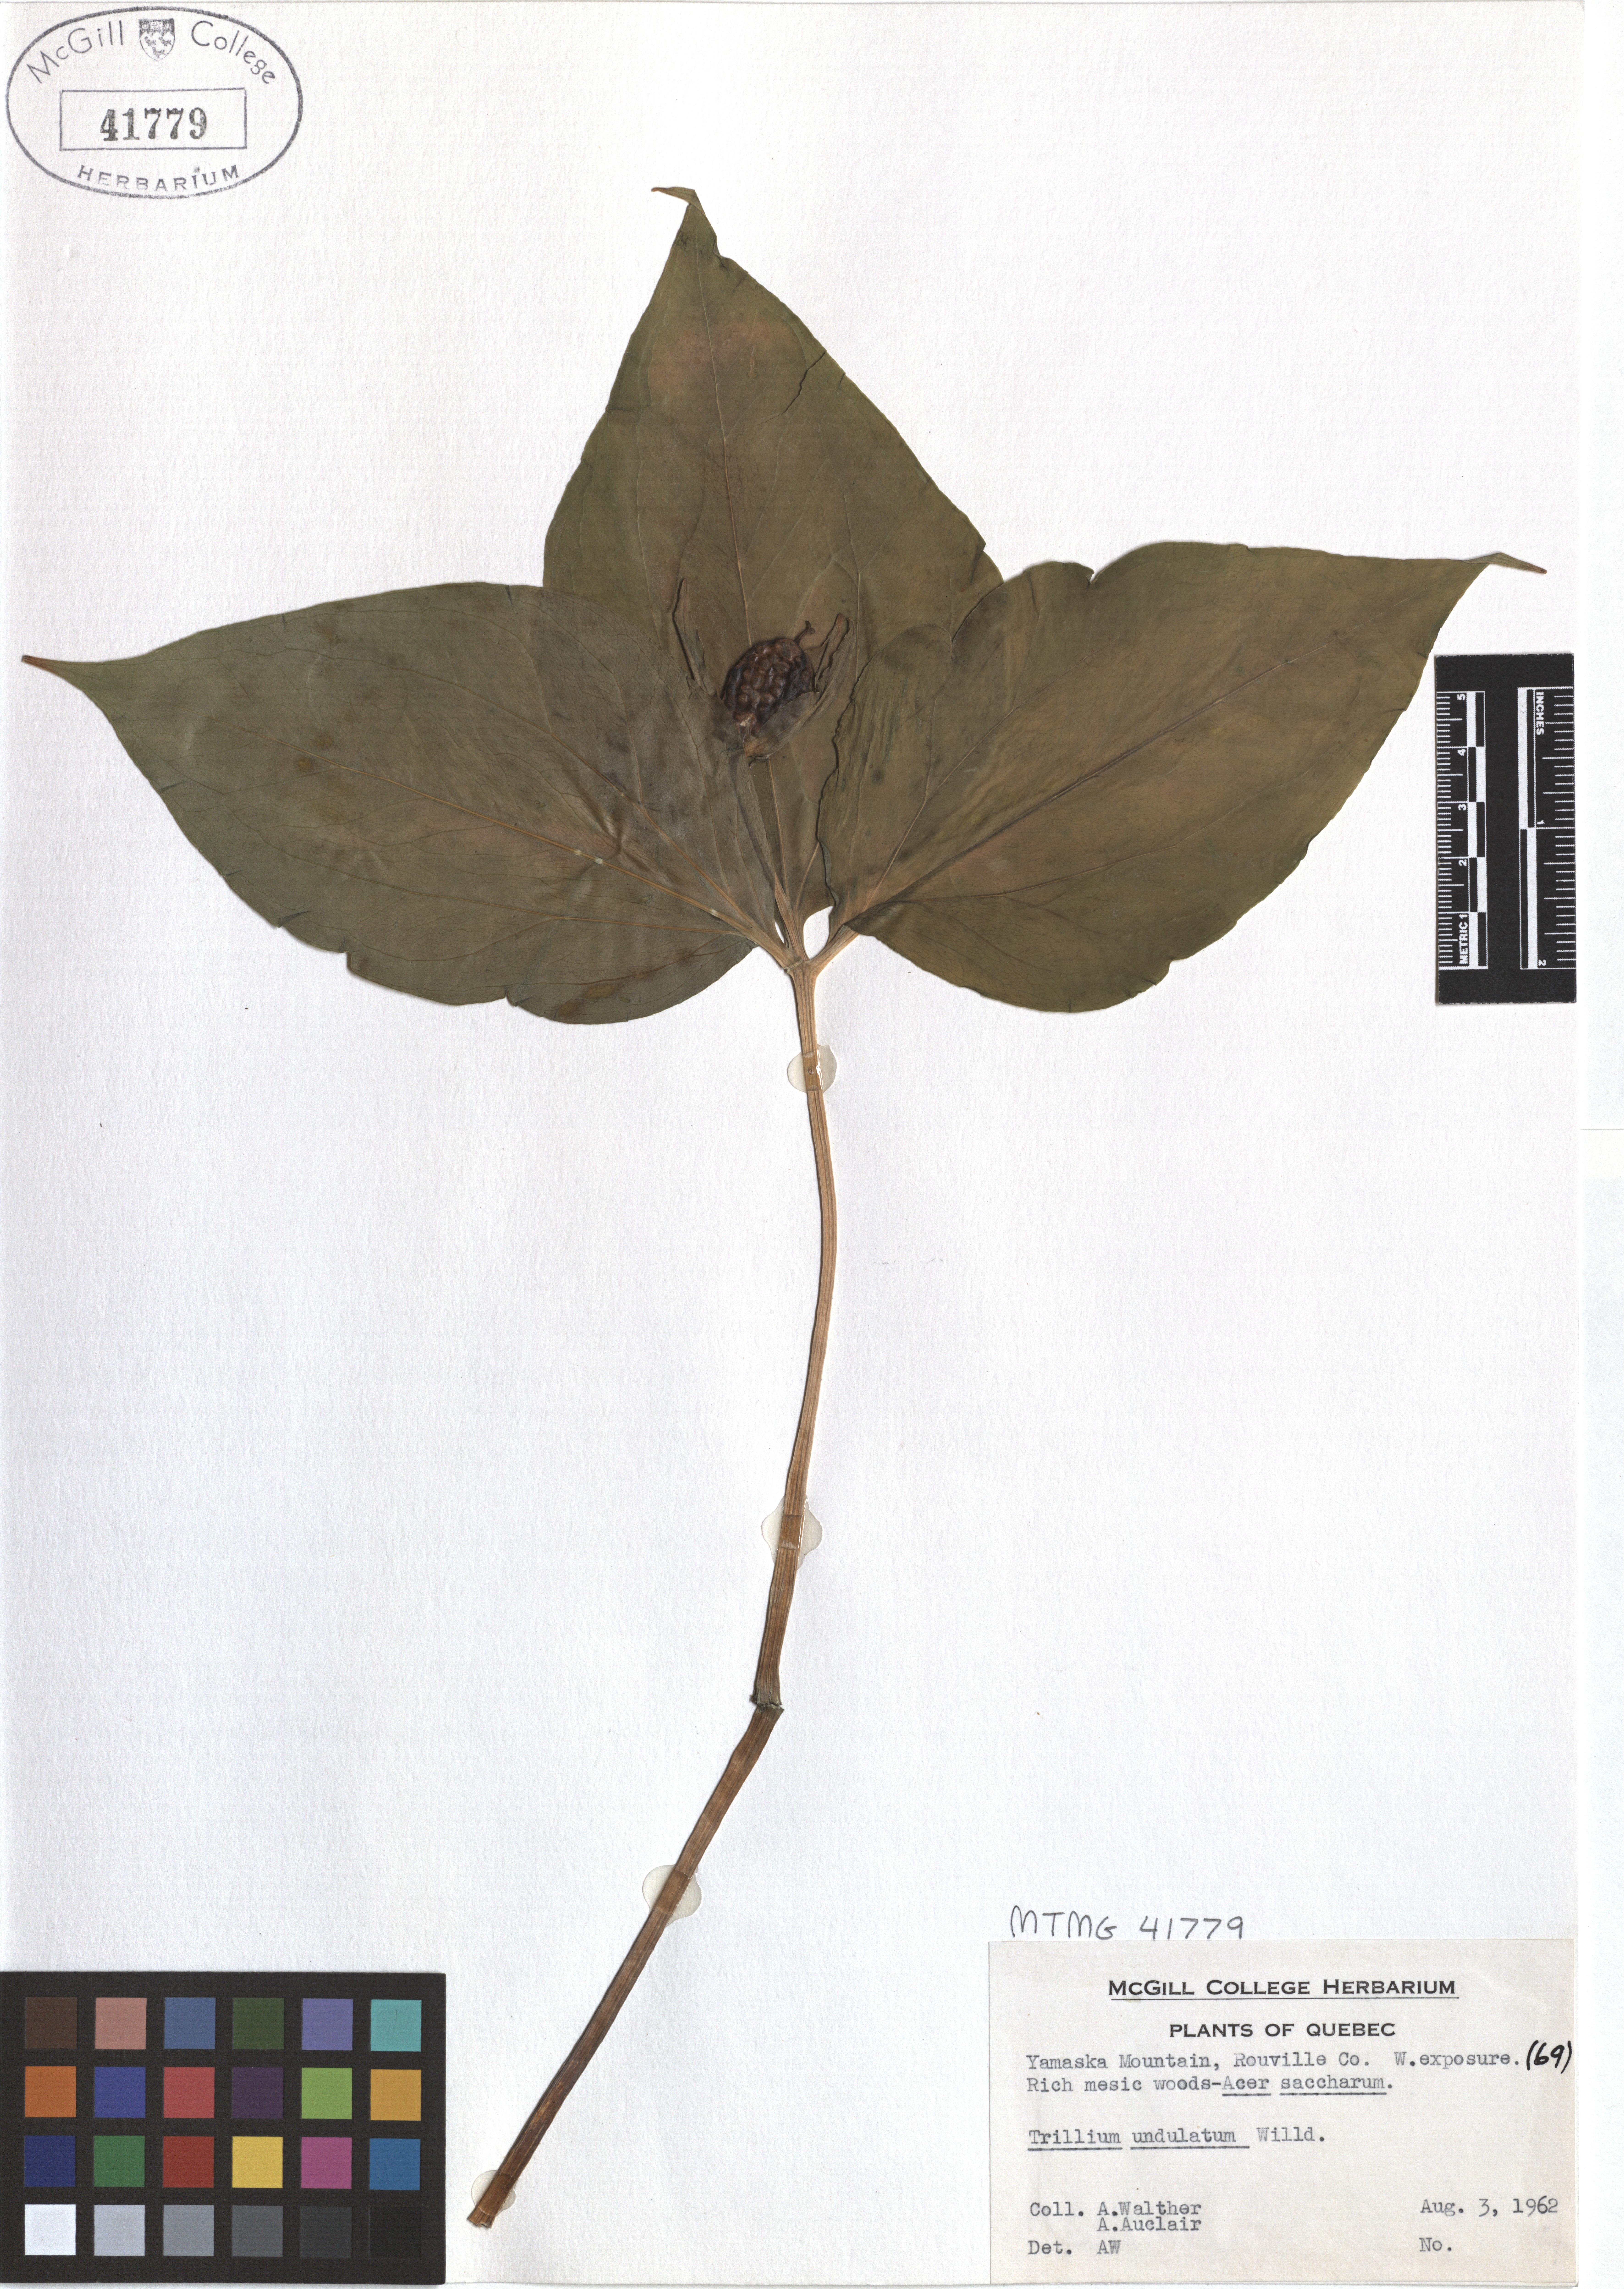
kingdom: Plantae
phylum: Tracheophyta
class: Liliopsida
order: Liliales
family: Melanthiaceae
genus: Trillium
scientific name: Trillium undulatum
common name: Paint trillium
